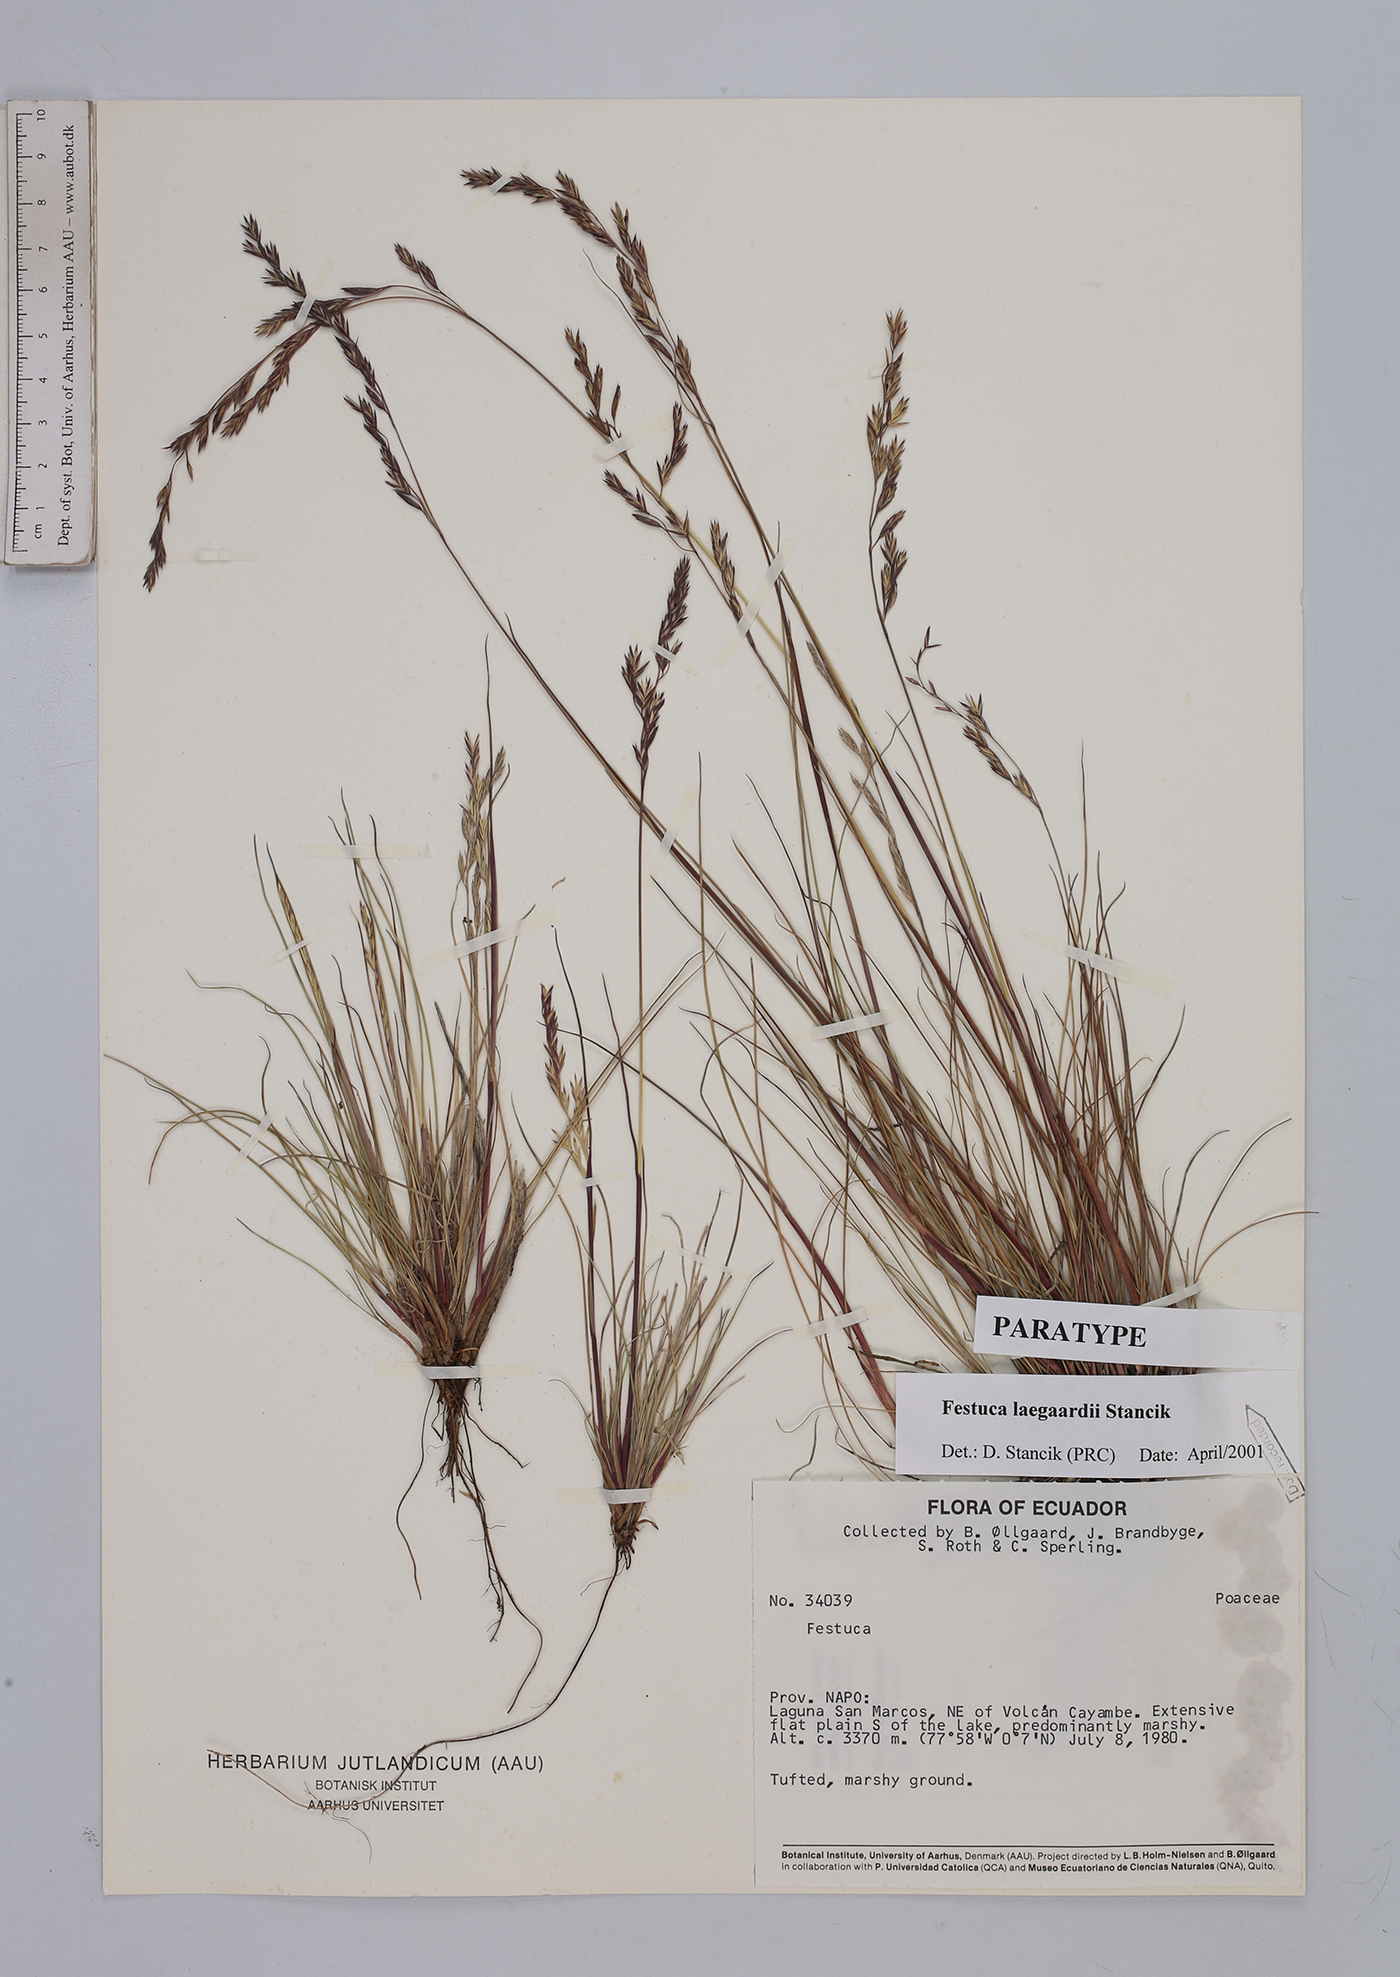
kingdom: Plantae
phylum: Tracheophyta
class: Liliopsida
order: Poales
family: Poaceae
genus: Festuca
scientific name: Festuca laegaardii
